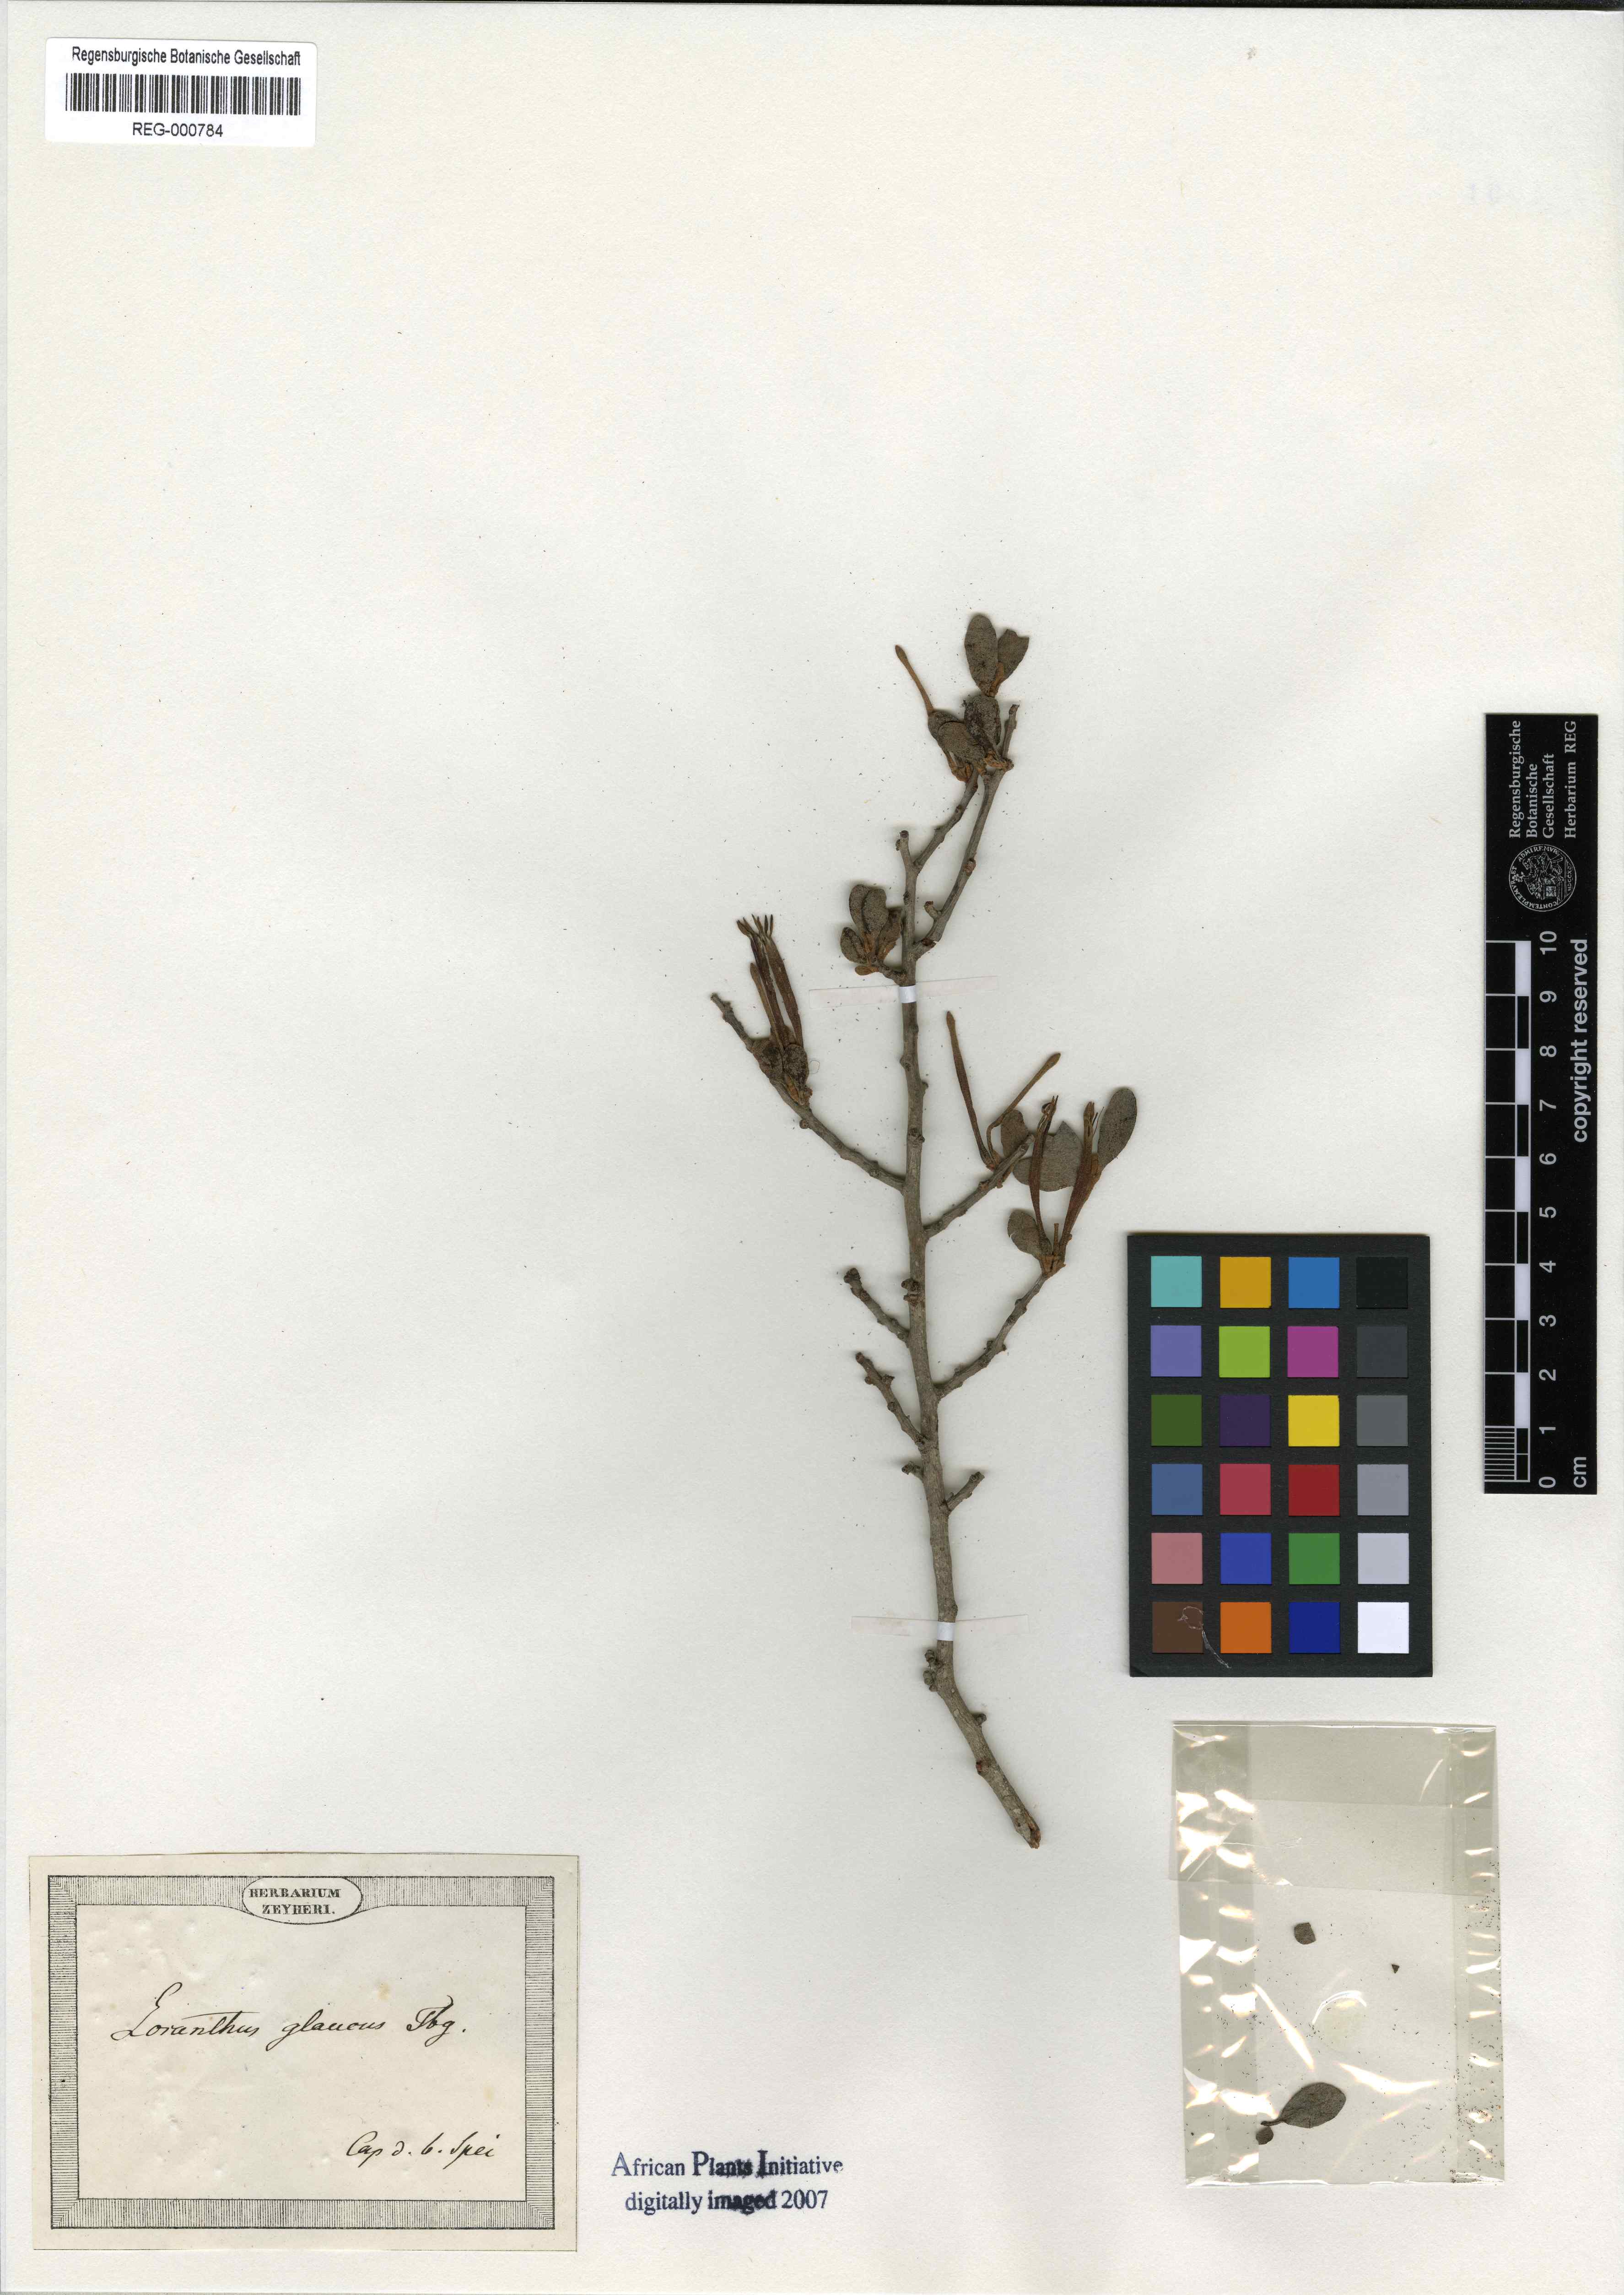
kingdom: Plantae
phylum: Tracheophyta
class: Magnoliopsida
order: Santalales
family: Loranthaceae
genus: Septulina
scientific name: Septulina glauca
